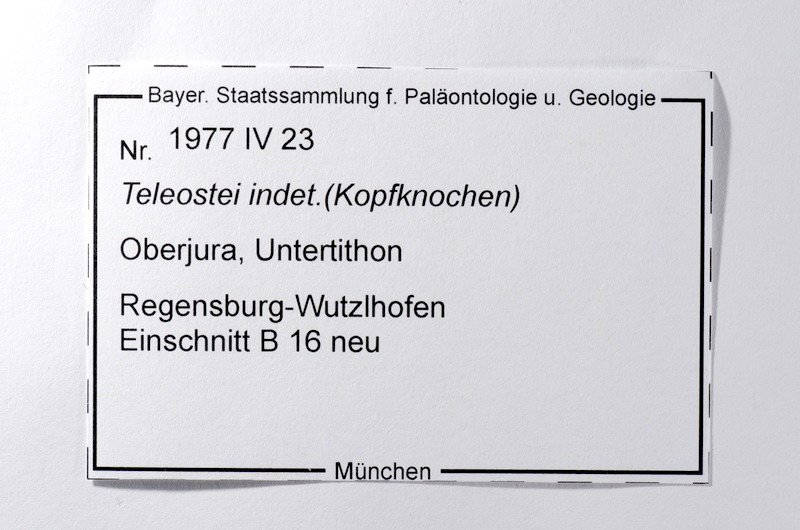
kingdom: Animalia
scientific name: Animalia
